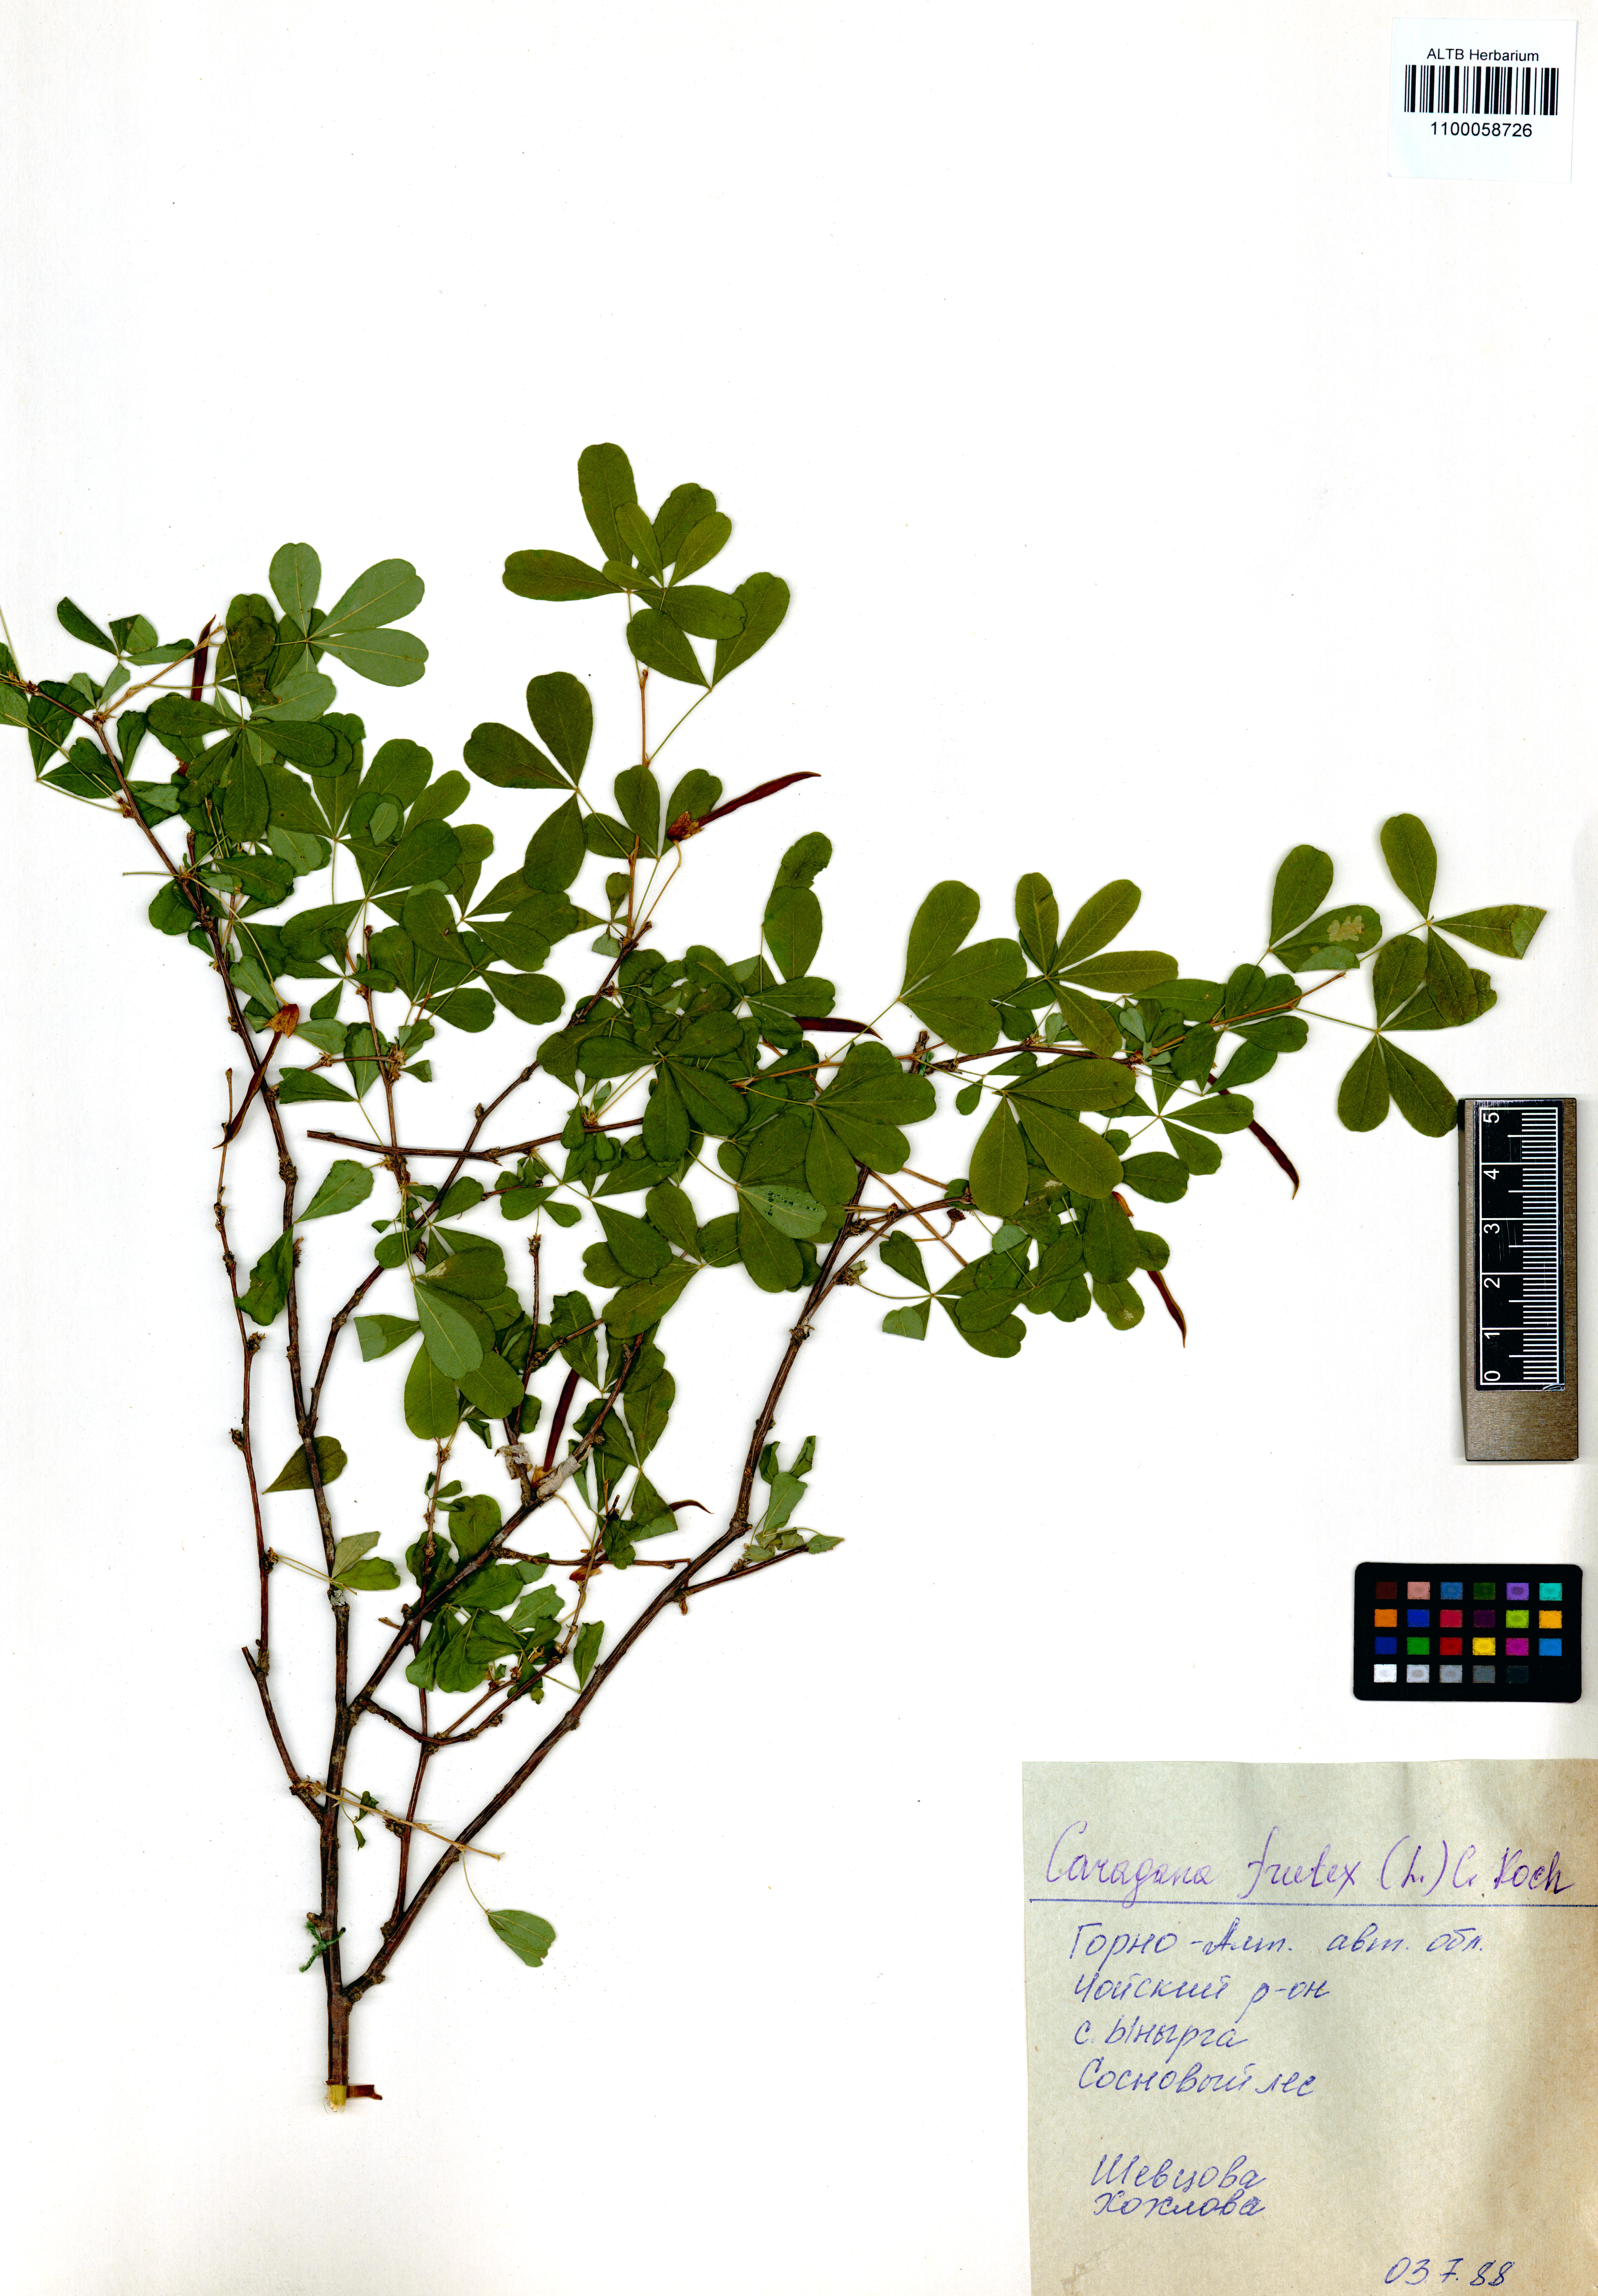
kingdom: Plantae
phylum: Tracheophyta
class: Magnoliopsida
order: Fabales
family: Fabaceae
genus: Caragana
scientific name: Caragana frutex
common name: Russian peashrub
